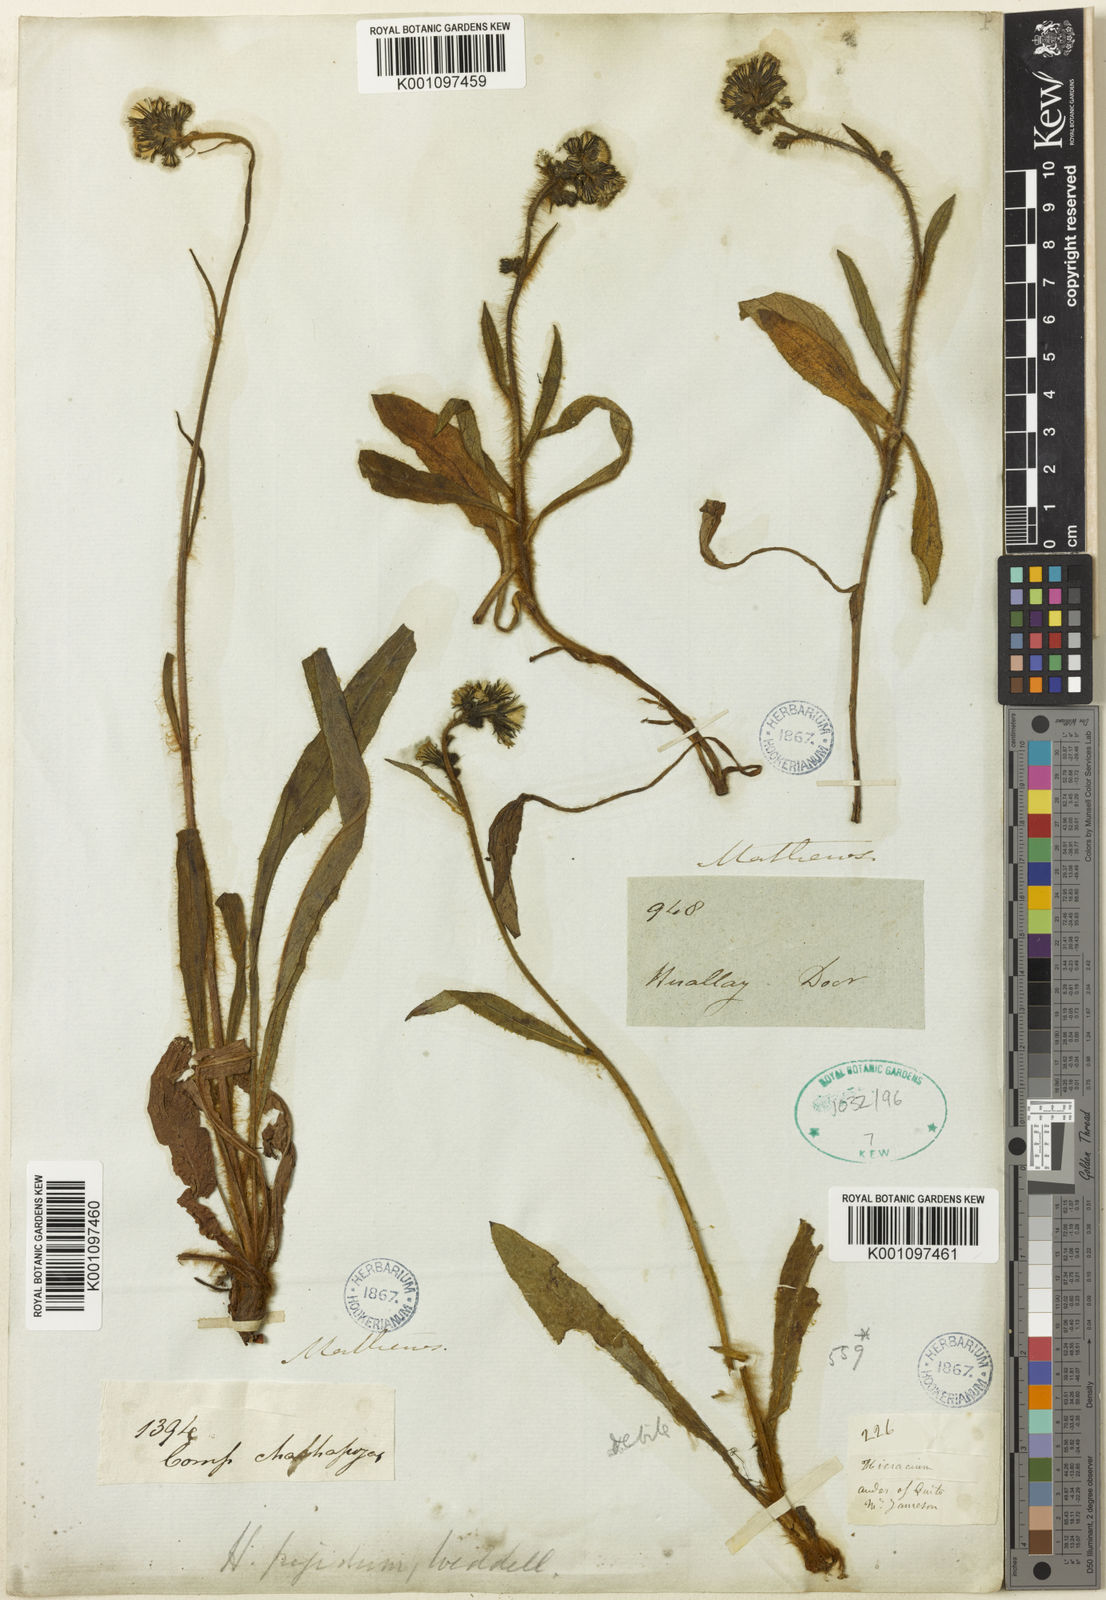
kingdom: Plantae
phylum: Tracheophyta
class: Magnoliopsida
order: Asterales
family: Asteraceae
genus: Hieracium
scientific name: Hieracium jubatum
